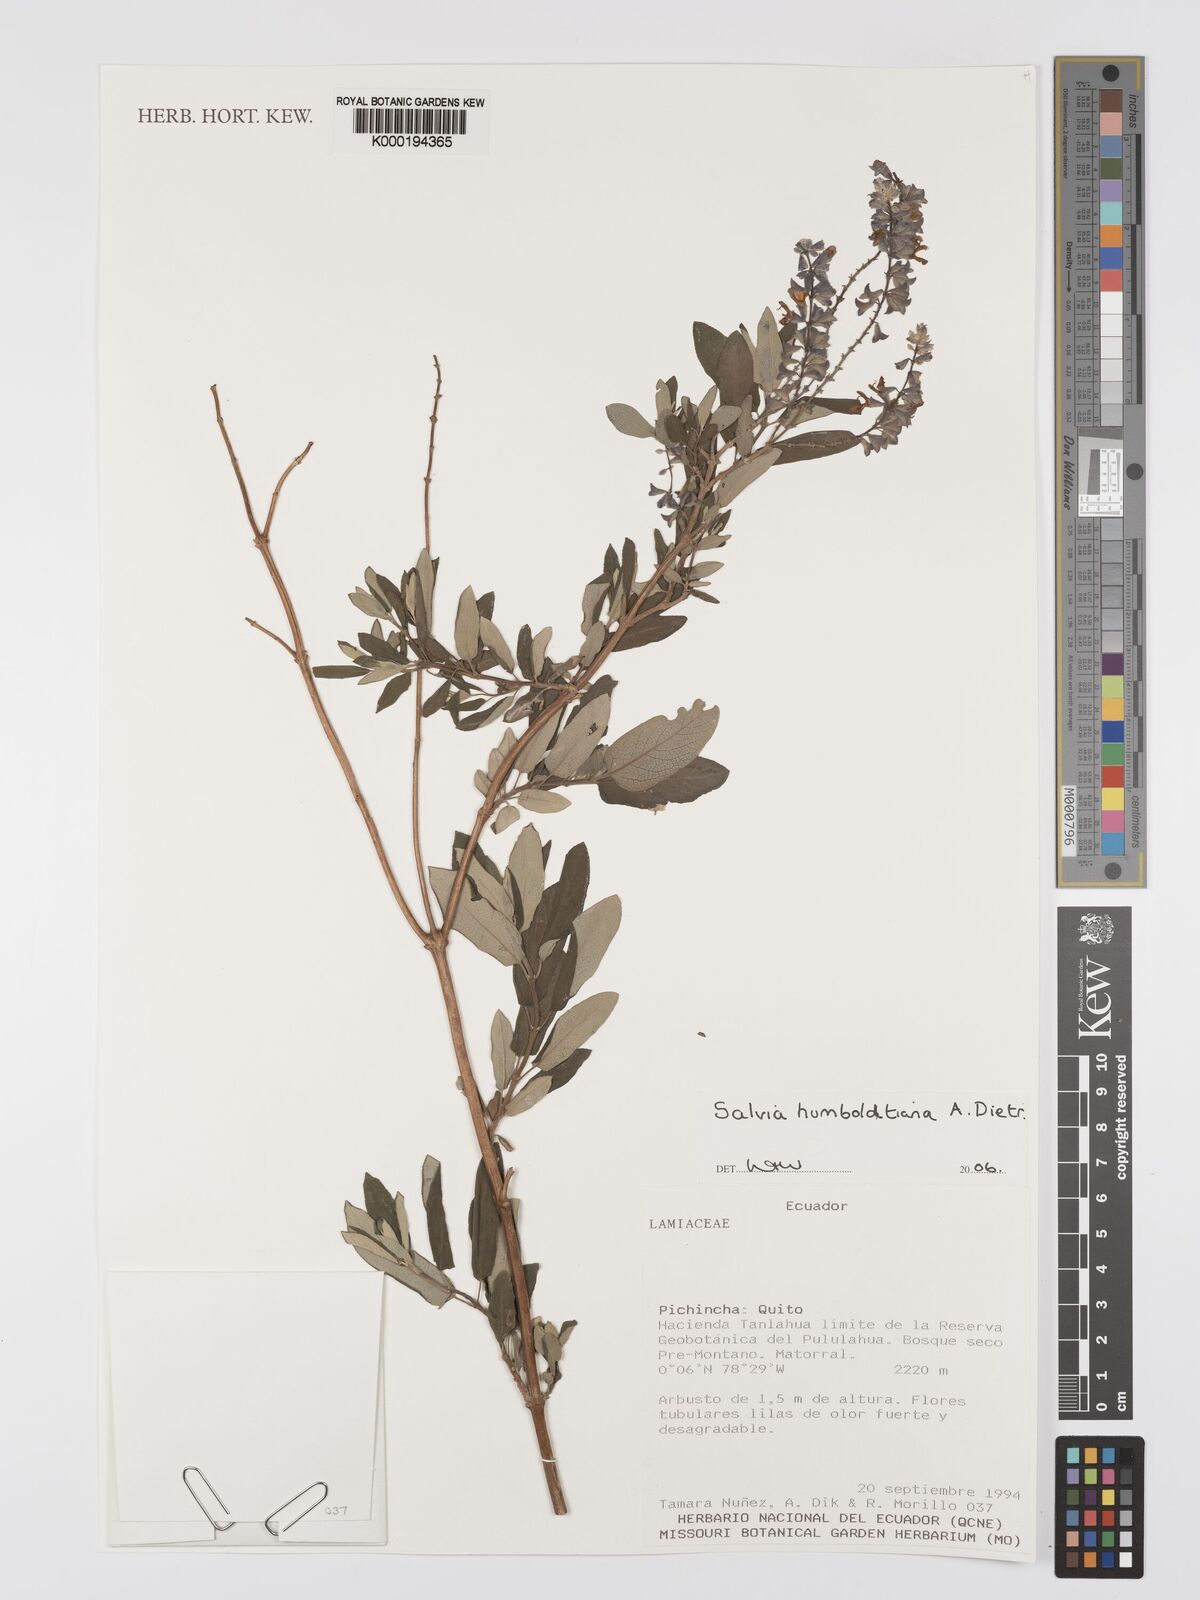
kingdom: Plantae
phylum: Tracheophyta
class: Magnoliopsida
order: Lamiales
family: Lamiaceae
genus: Salvia
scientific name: Salvia humboldtiana
